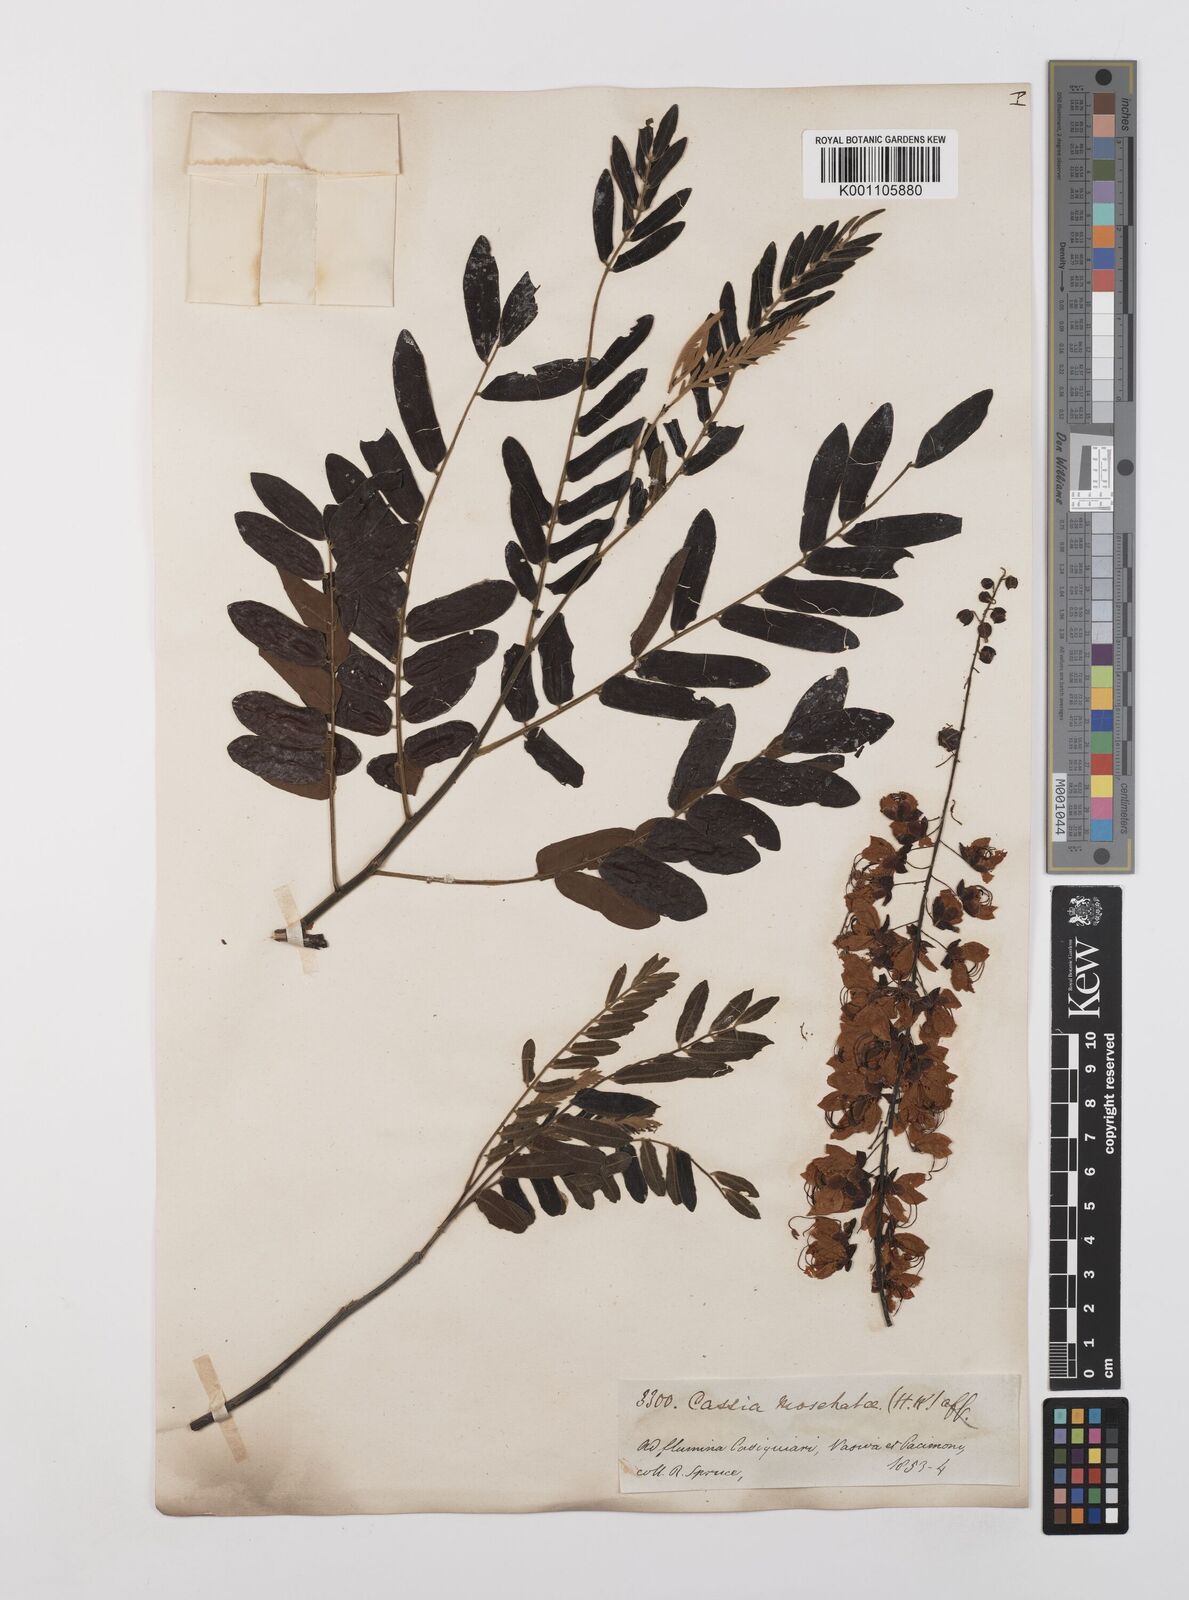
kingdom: Plantae
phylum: Tracheophyta
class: Magnoliopsida
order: Fabales
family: Fabaceae
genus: Cassia
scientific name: Cassia moschata
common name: Bronze shower tree
